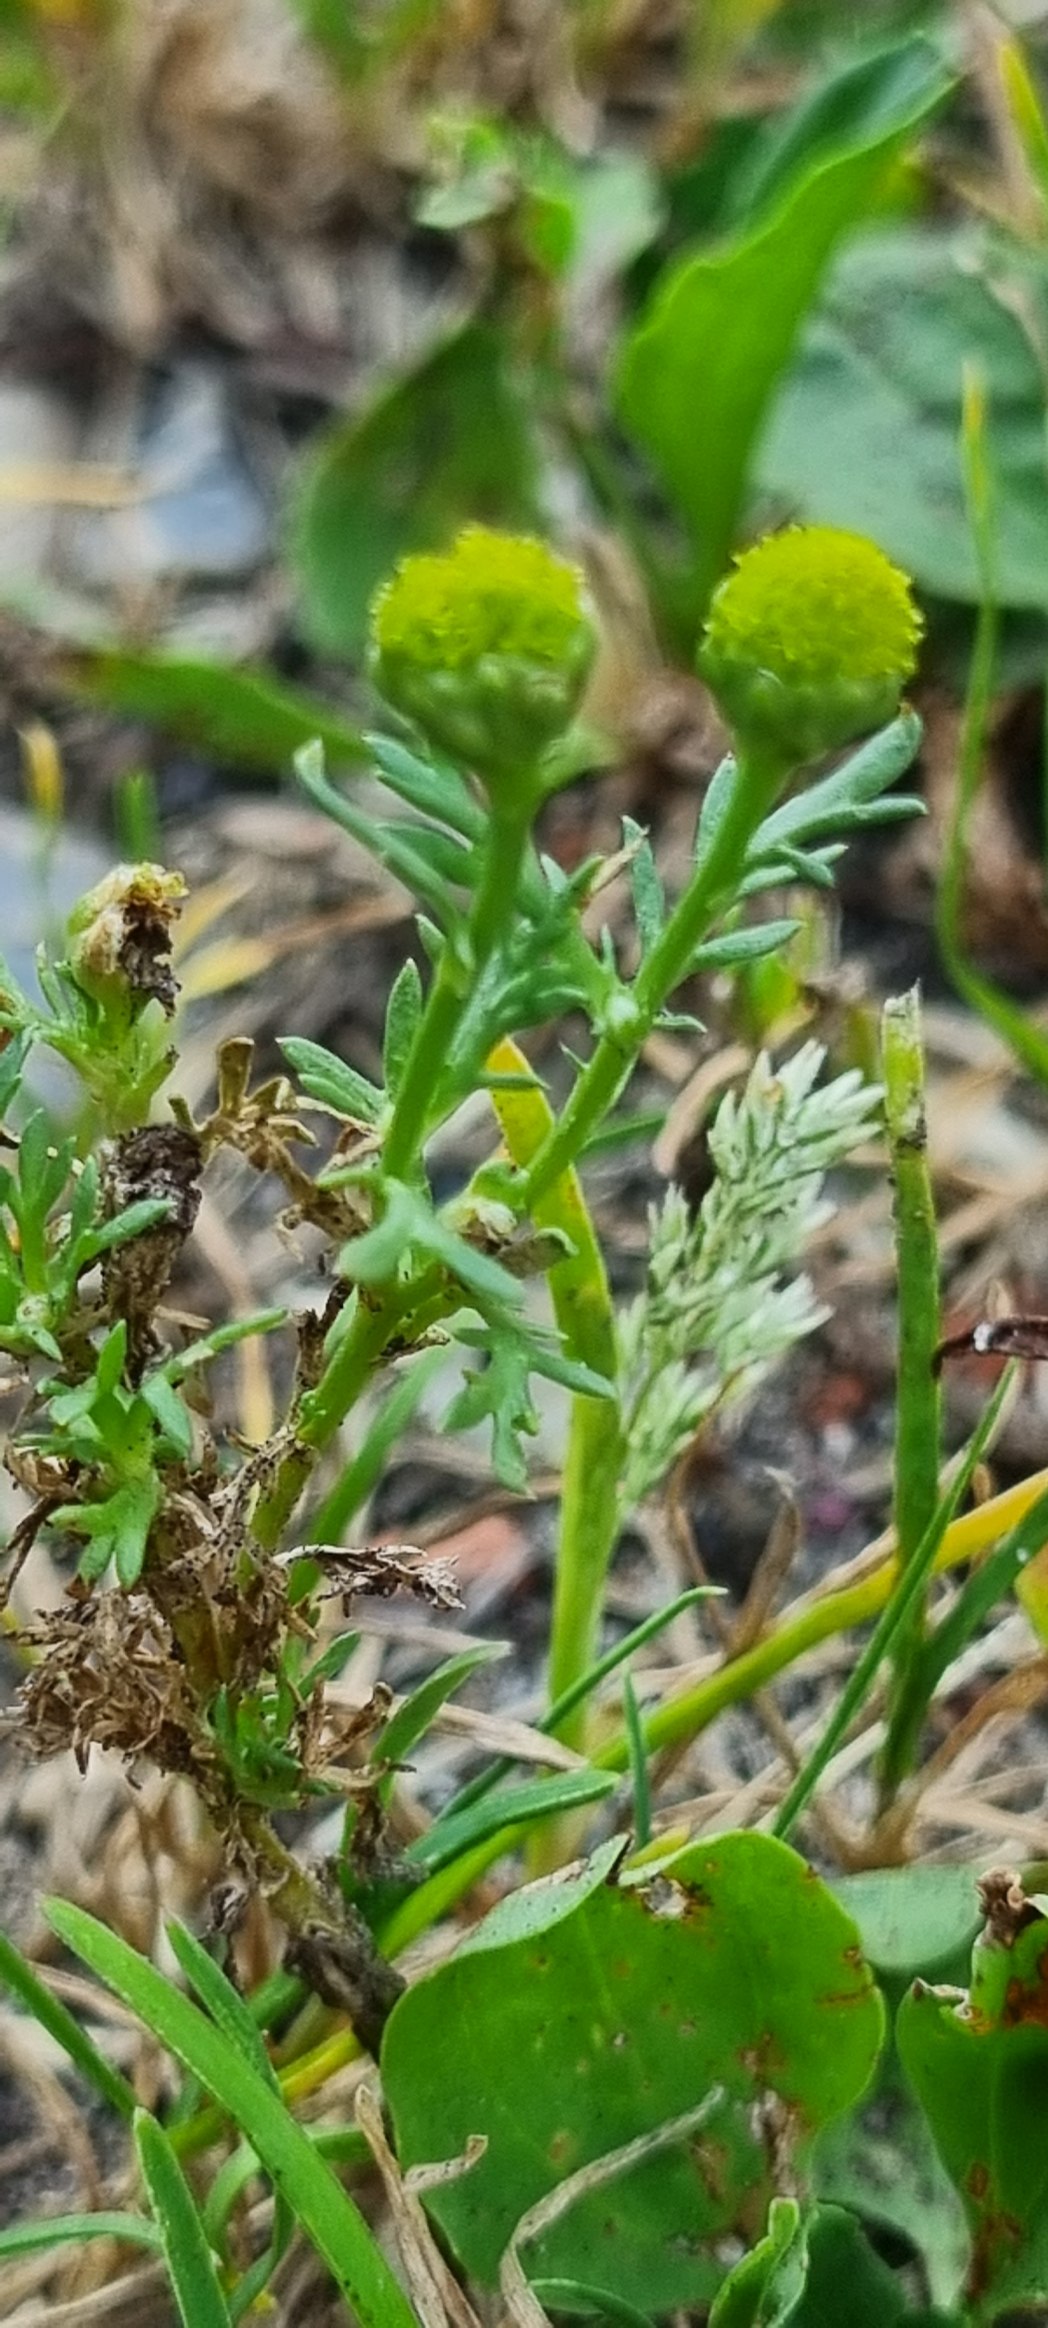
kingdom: Plantae
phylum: Tracheophyta
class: Magnoliopsida
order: Asterales
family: Asteraceae
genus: Matricaria
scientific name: Matricaria discoidea
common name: Skive-kamille
